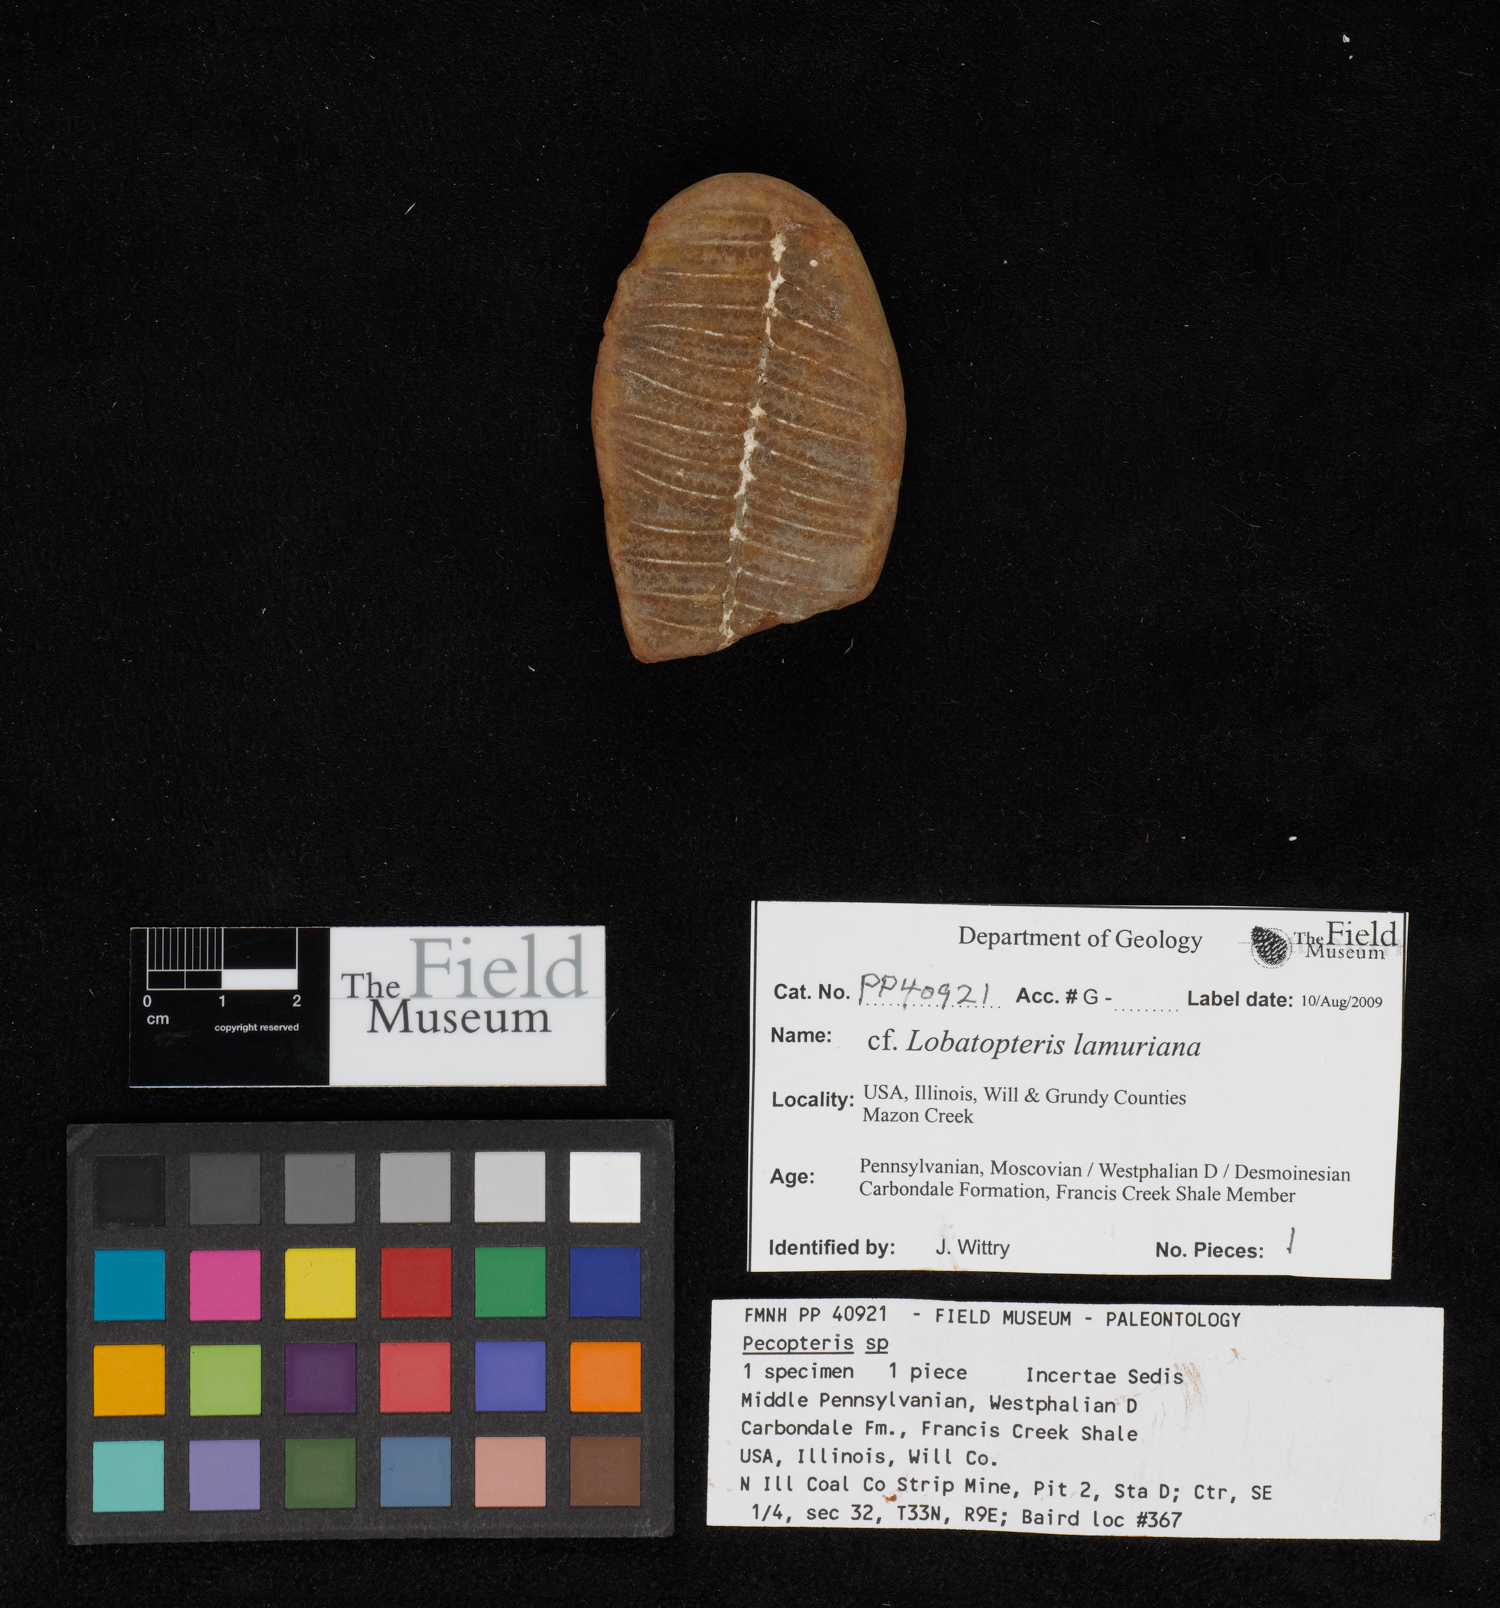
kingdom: Plantae
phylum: Tracheophyta
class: Polypodiopsida
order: Marattiales
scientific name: Marattiales
